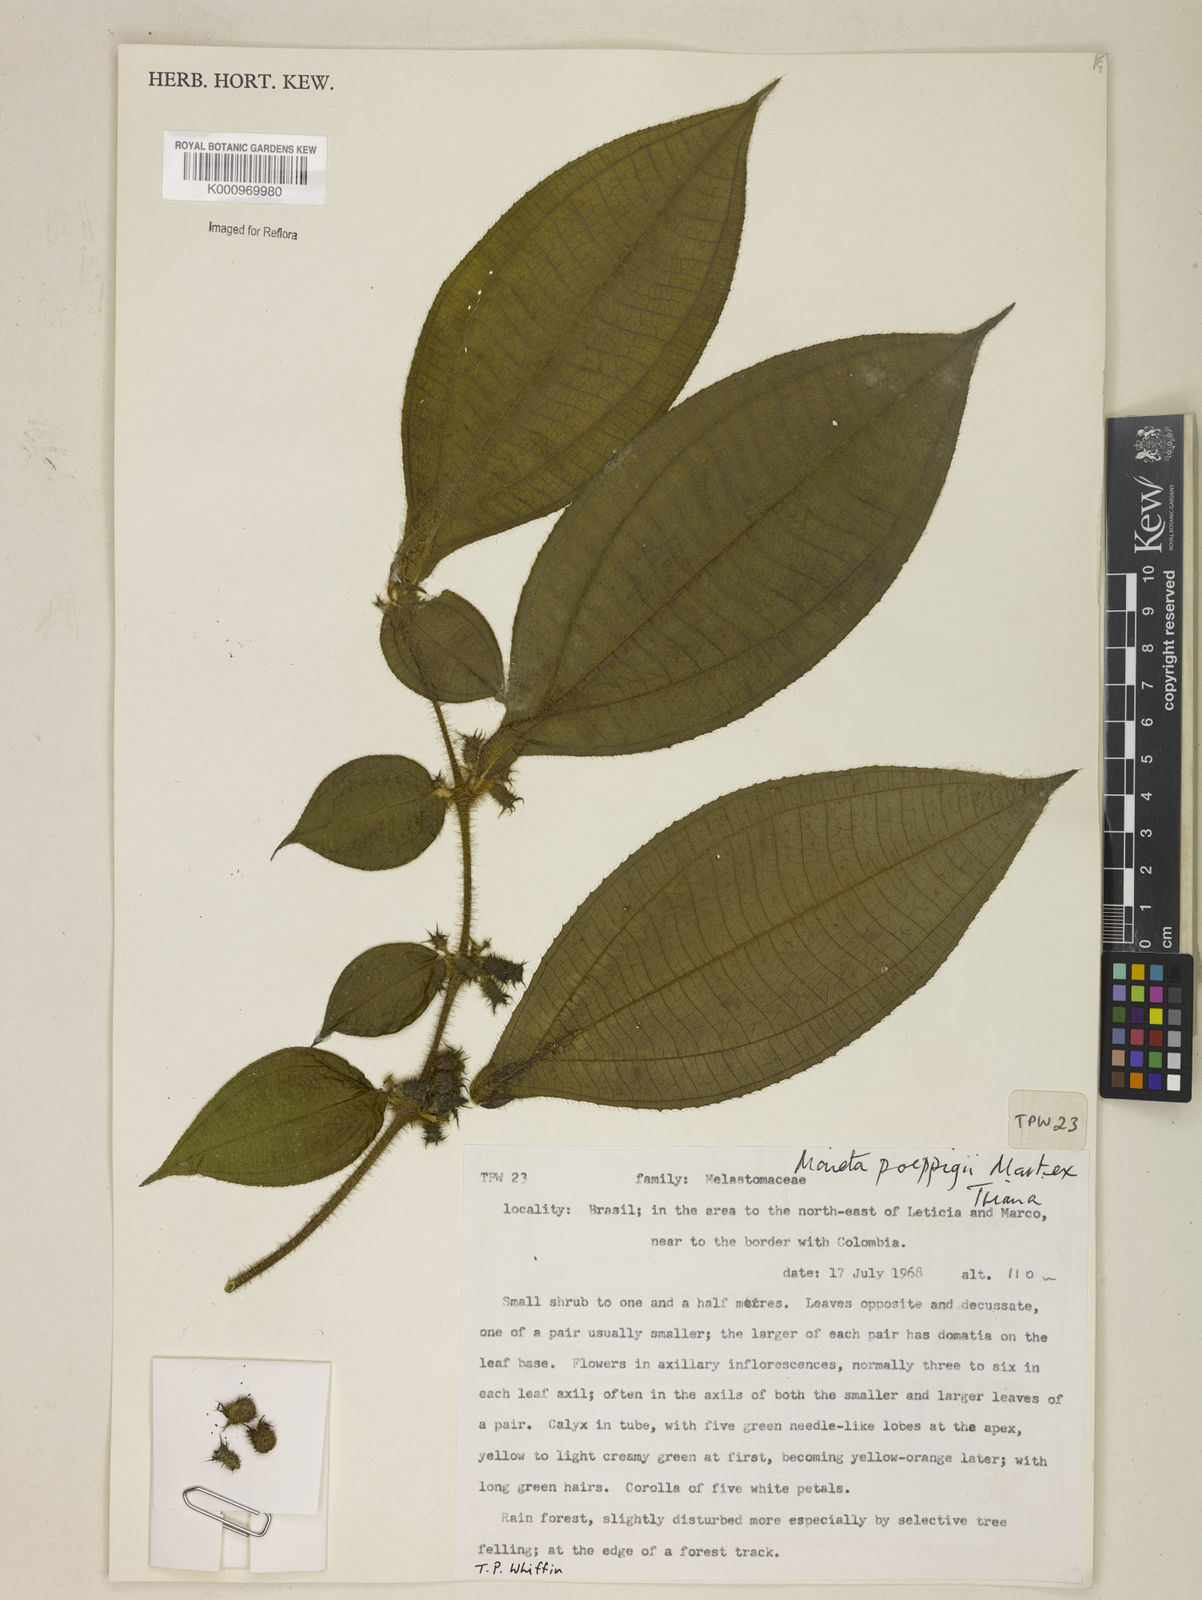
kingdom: Plantae
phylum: Tracheophyta
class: Magnoliopsida
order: Myrtales
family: Melastomataceae
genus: Miconia
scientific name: Miconia alternidomatia
